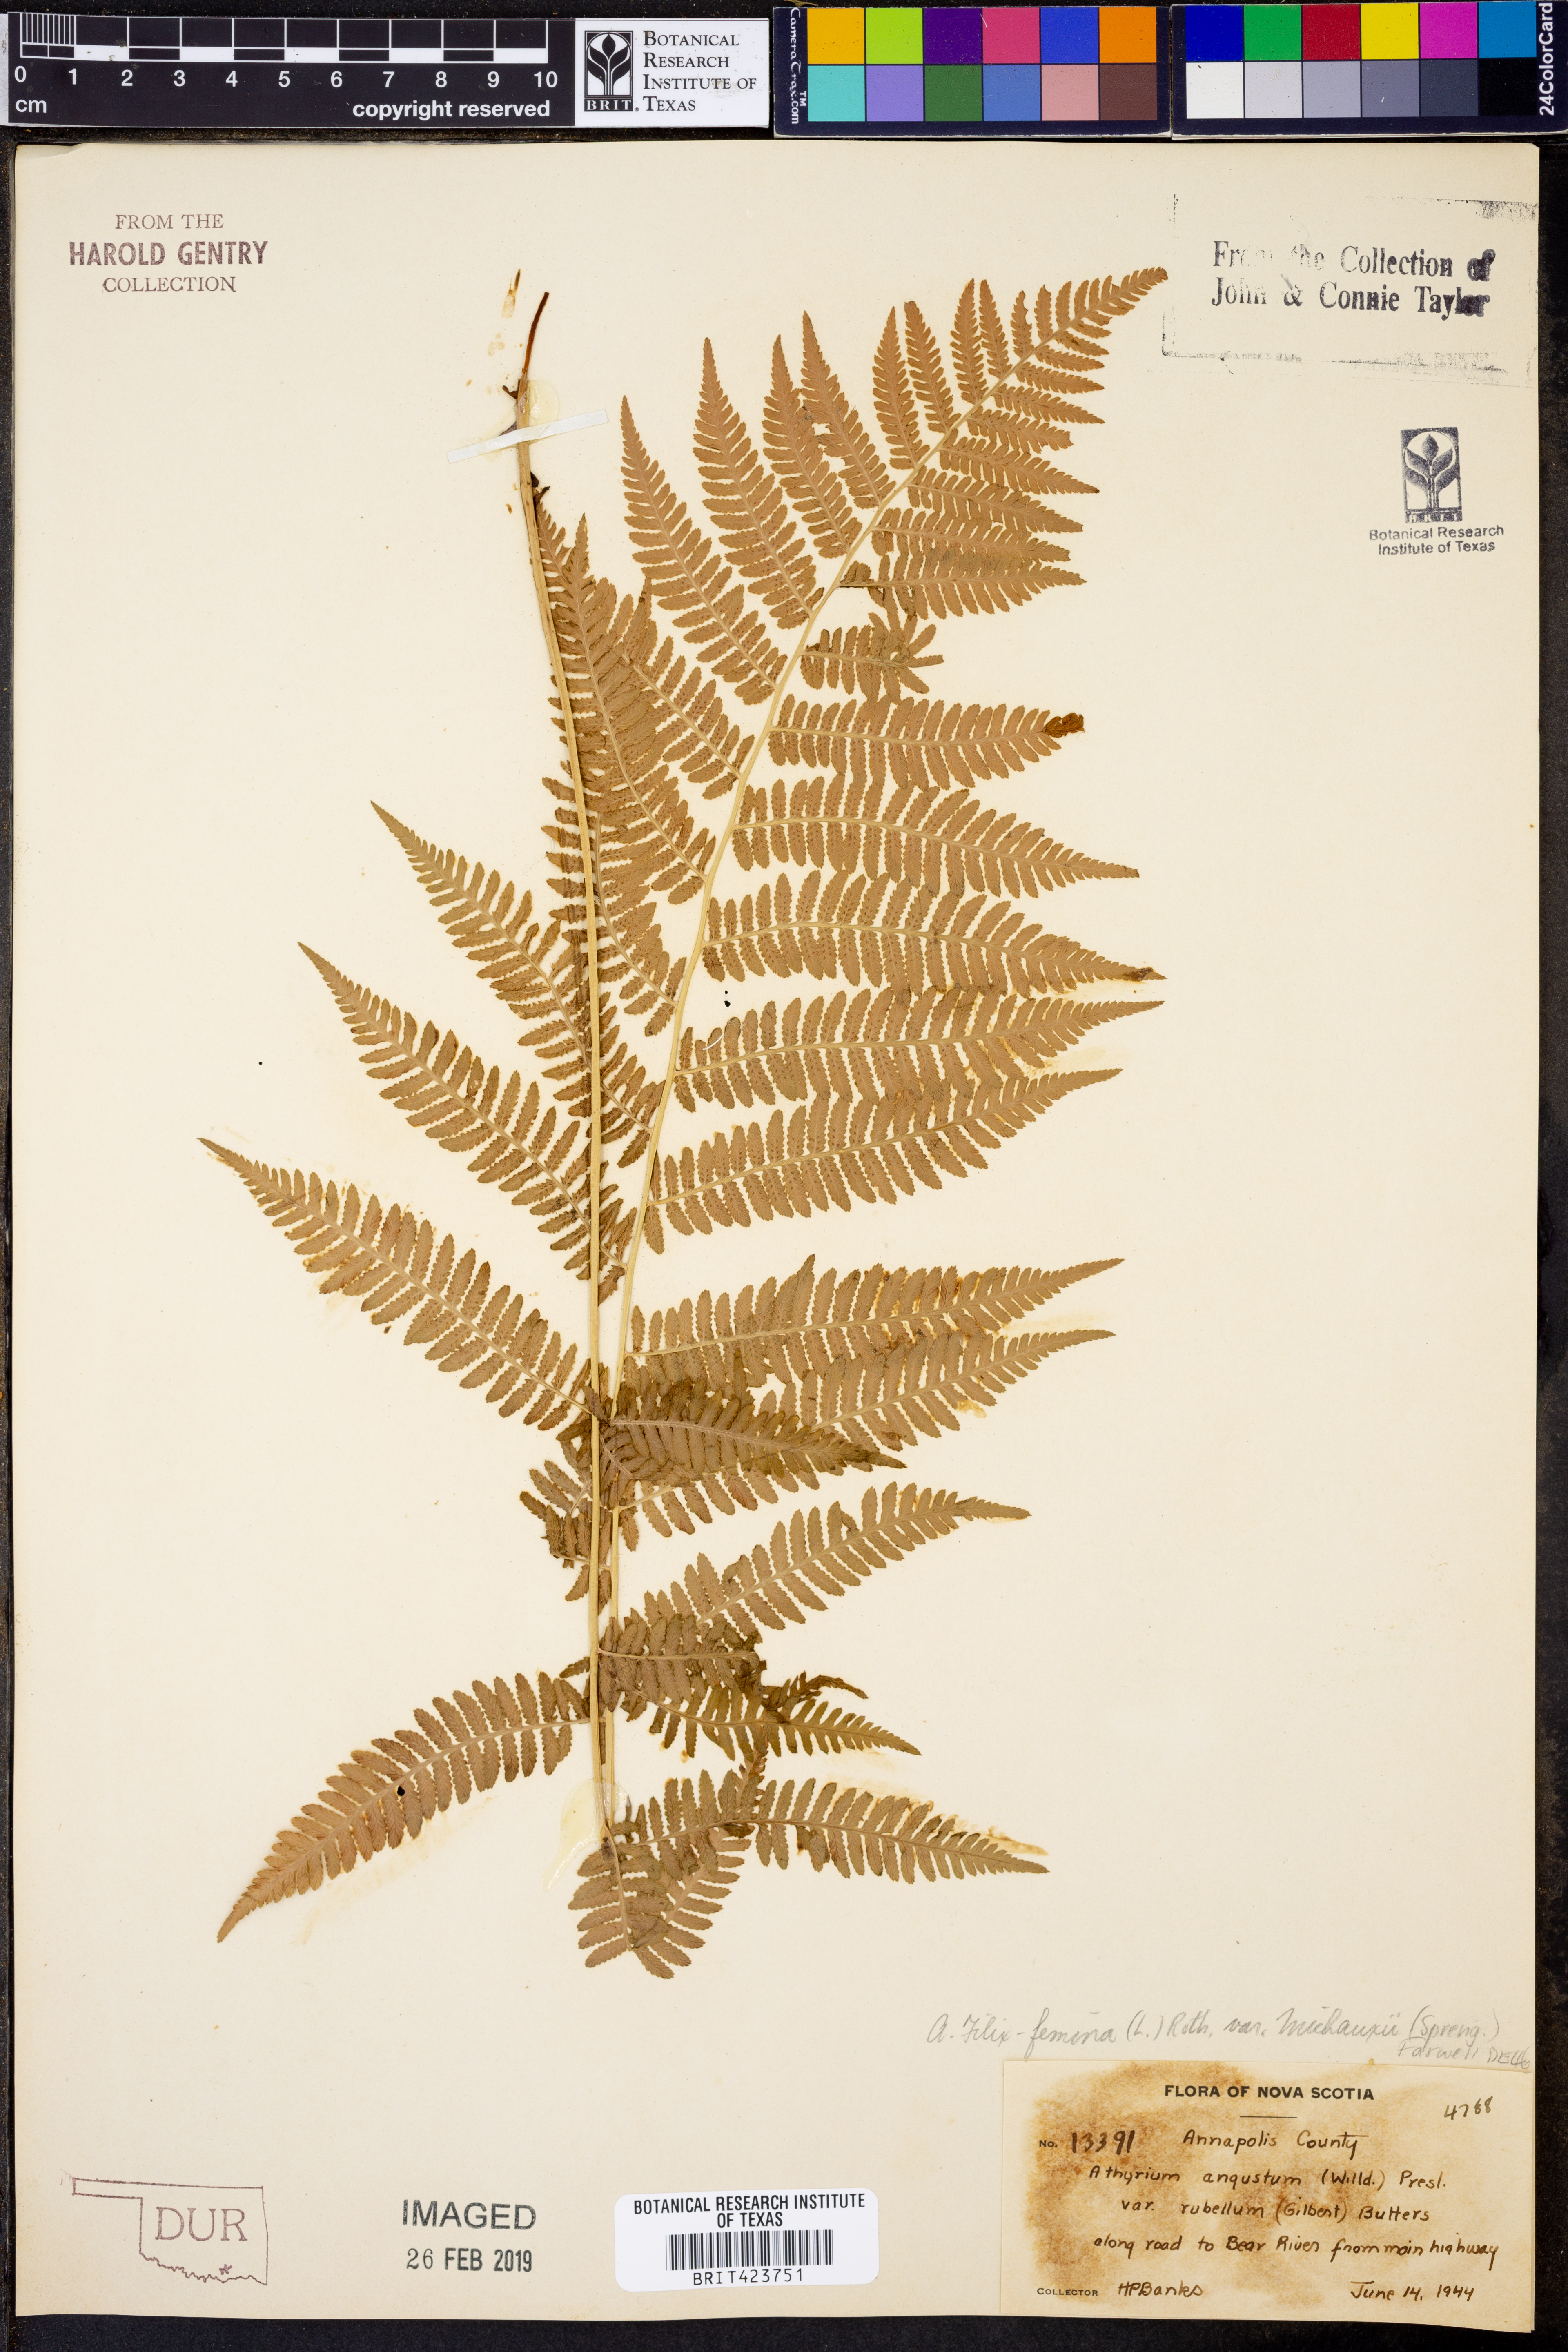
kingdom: Plantae
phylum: Tracheophyta
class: Polypodiopsida
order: Polypodiales
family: Athyriaceae
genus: Athyrium
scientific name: Athyrium angustum
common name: Northern lady fern
